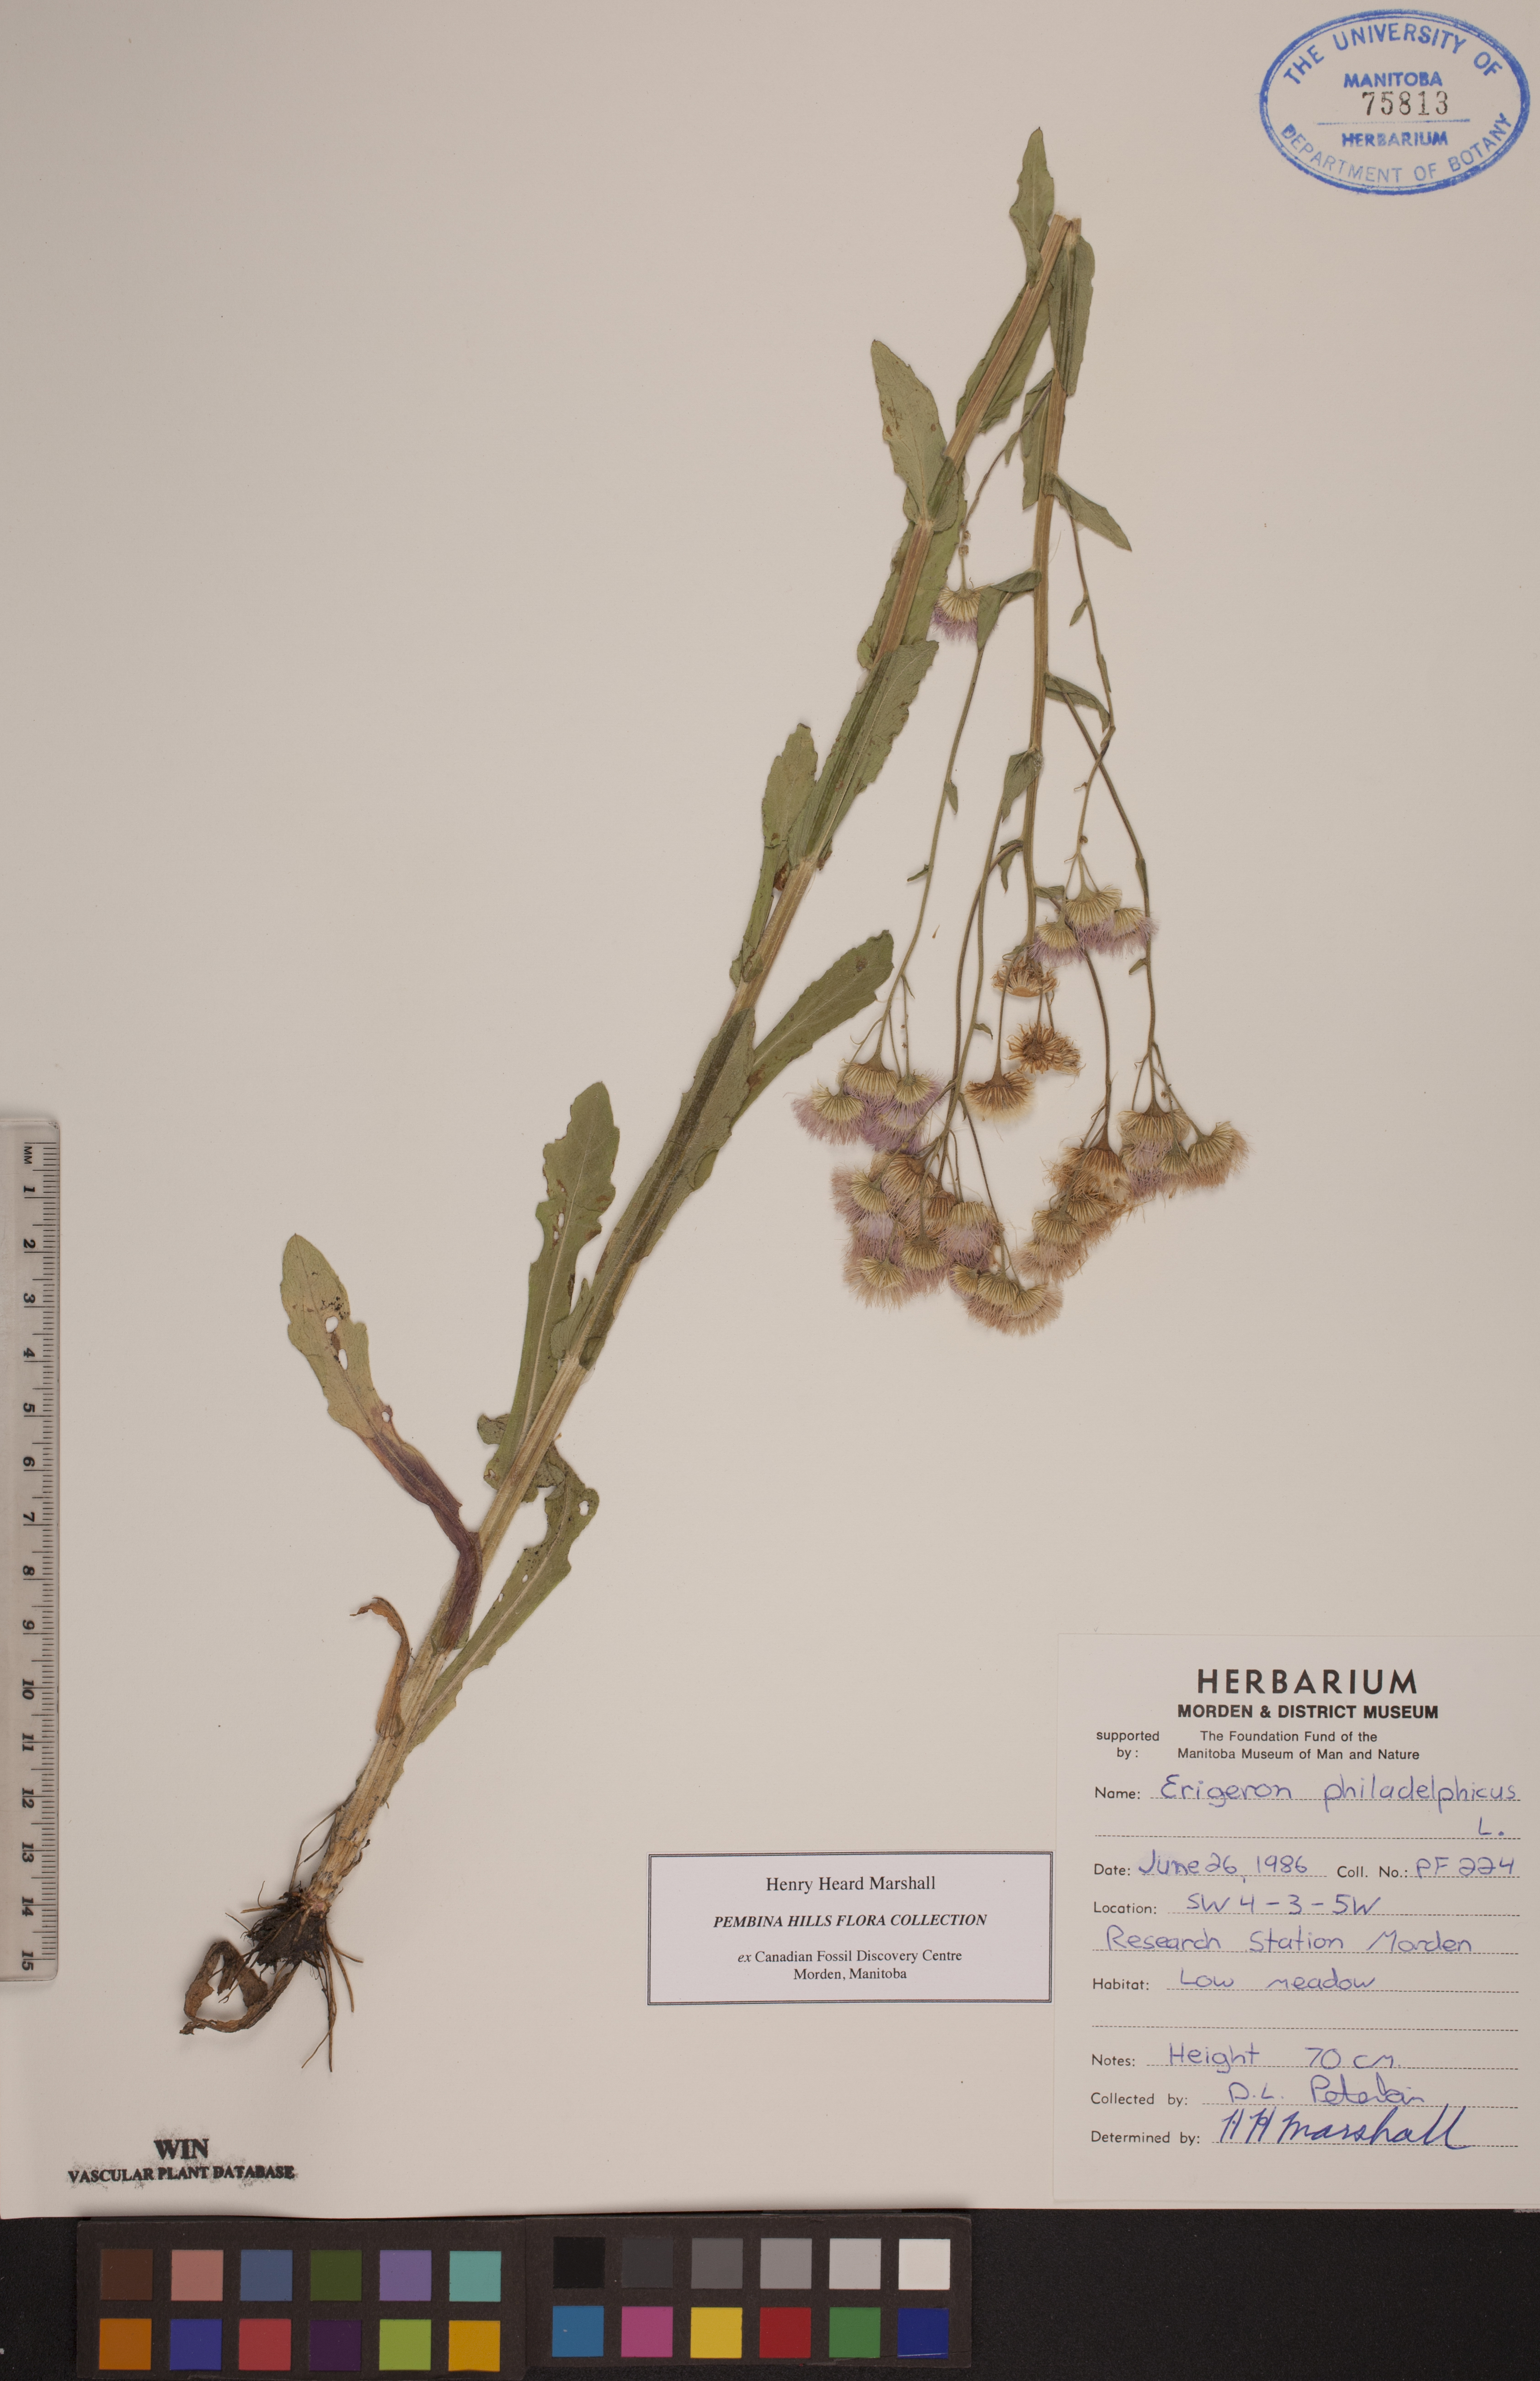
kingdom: Plantae
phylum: Tracheophyta
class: Magnoliopsida
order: Asterales
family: Asteraceae
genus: Erigeron
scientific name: Erigeron philadelphicus
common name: Robin's-plantain
